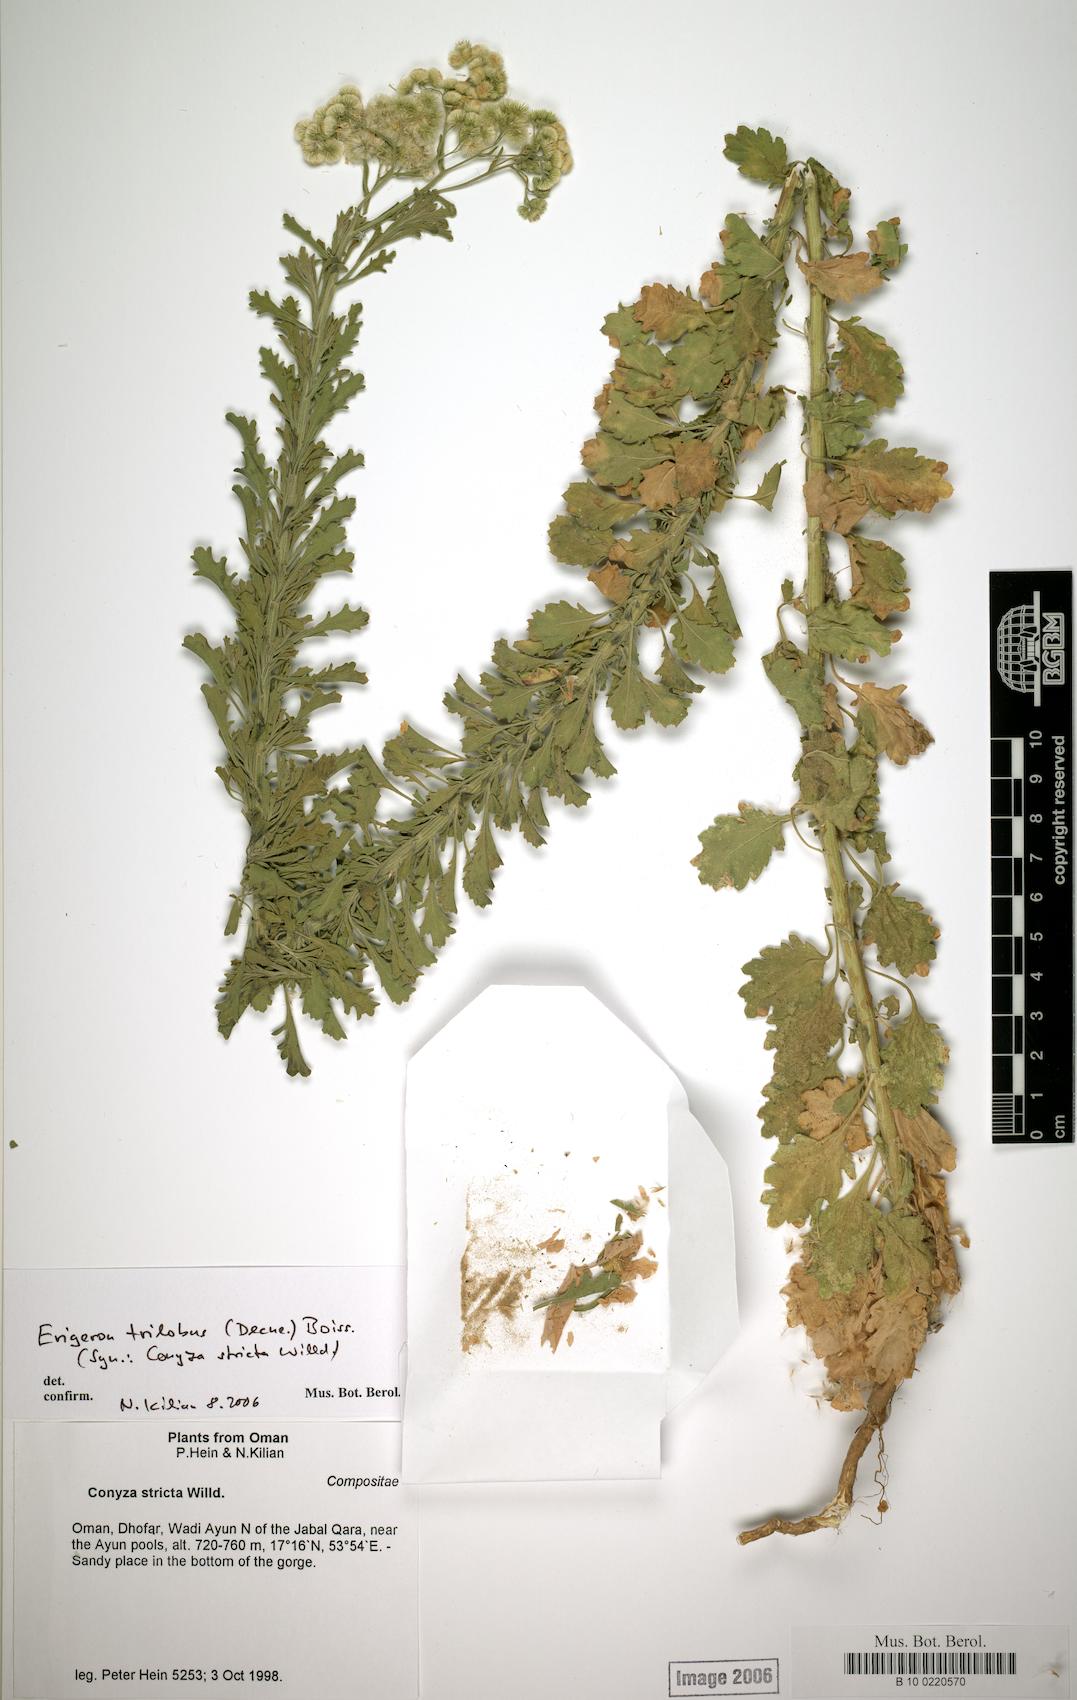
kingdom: Plantae
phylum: Tracheophyta
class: Magnoliopsida
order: Caryophyllales
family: Caryophyllaceae
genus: Stellaria
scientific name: Stellaria apetala
